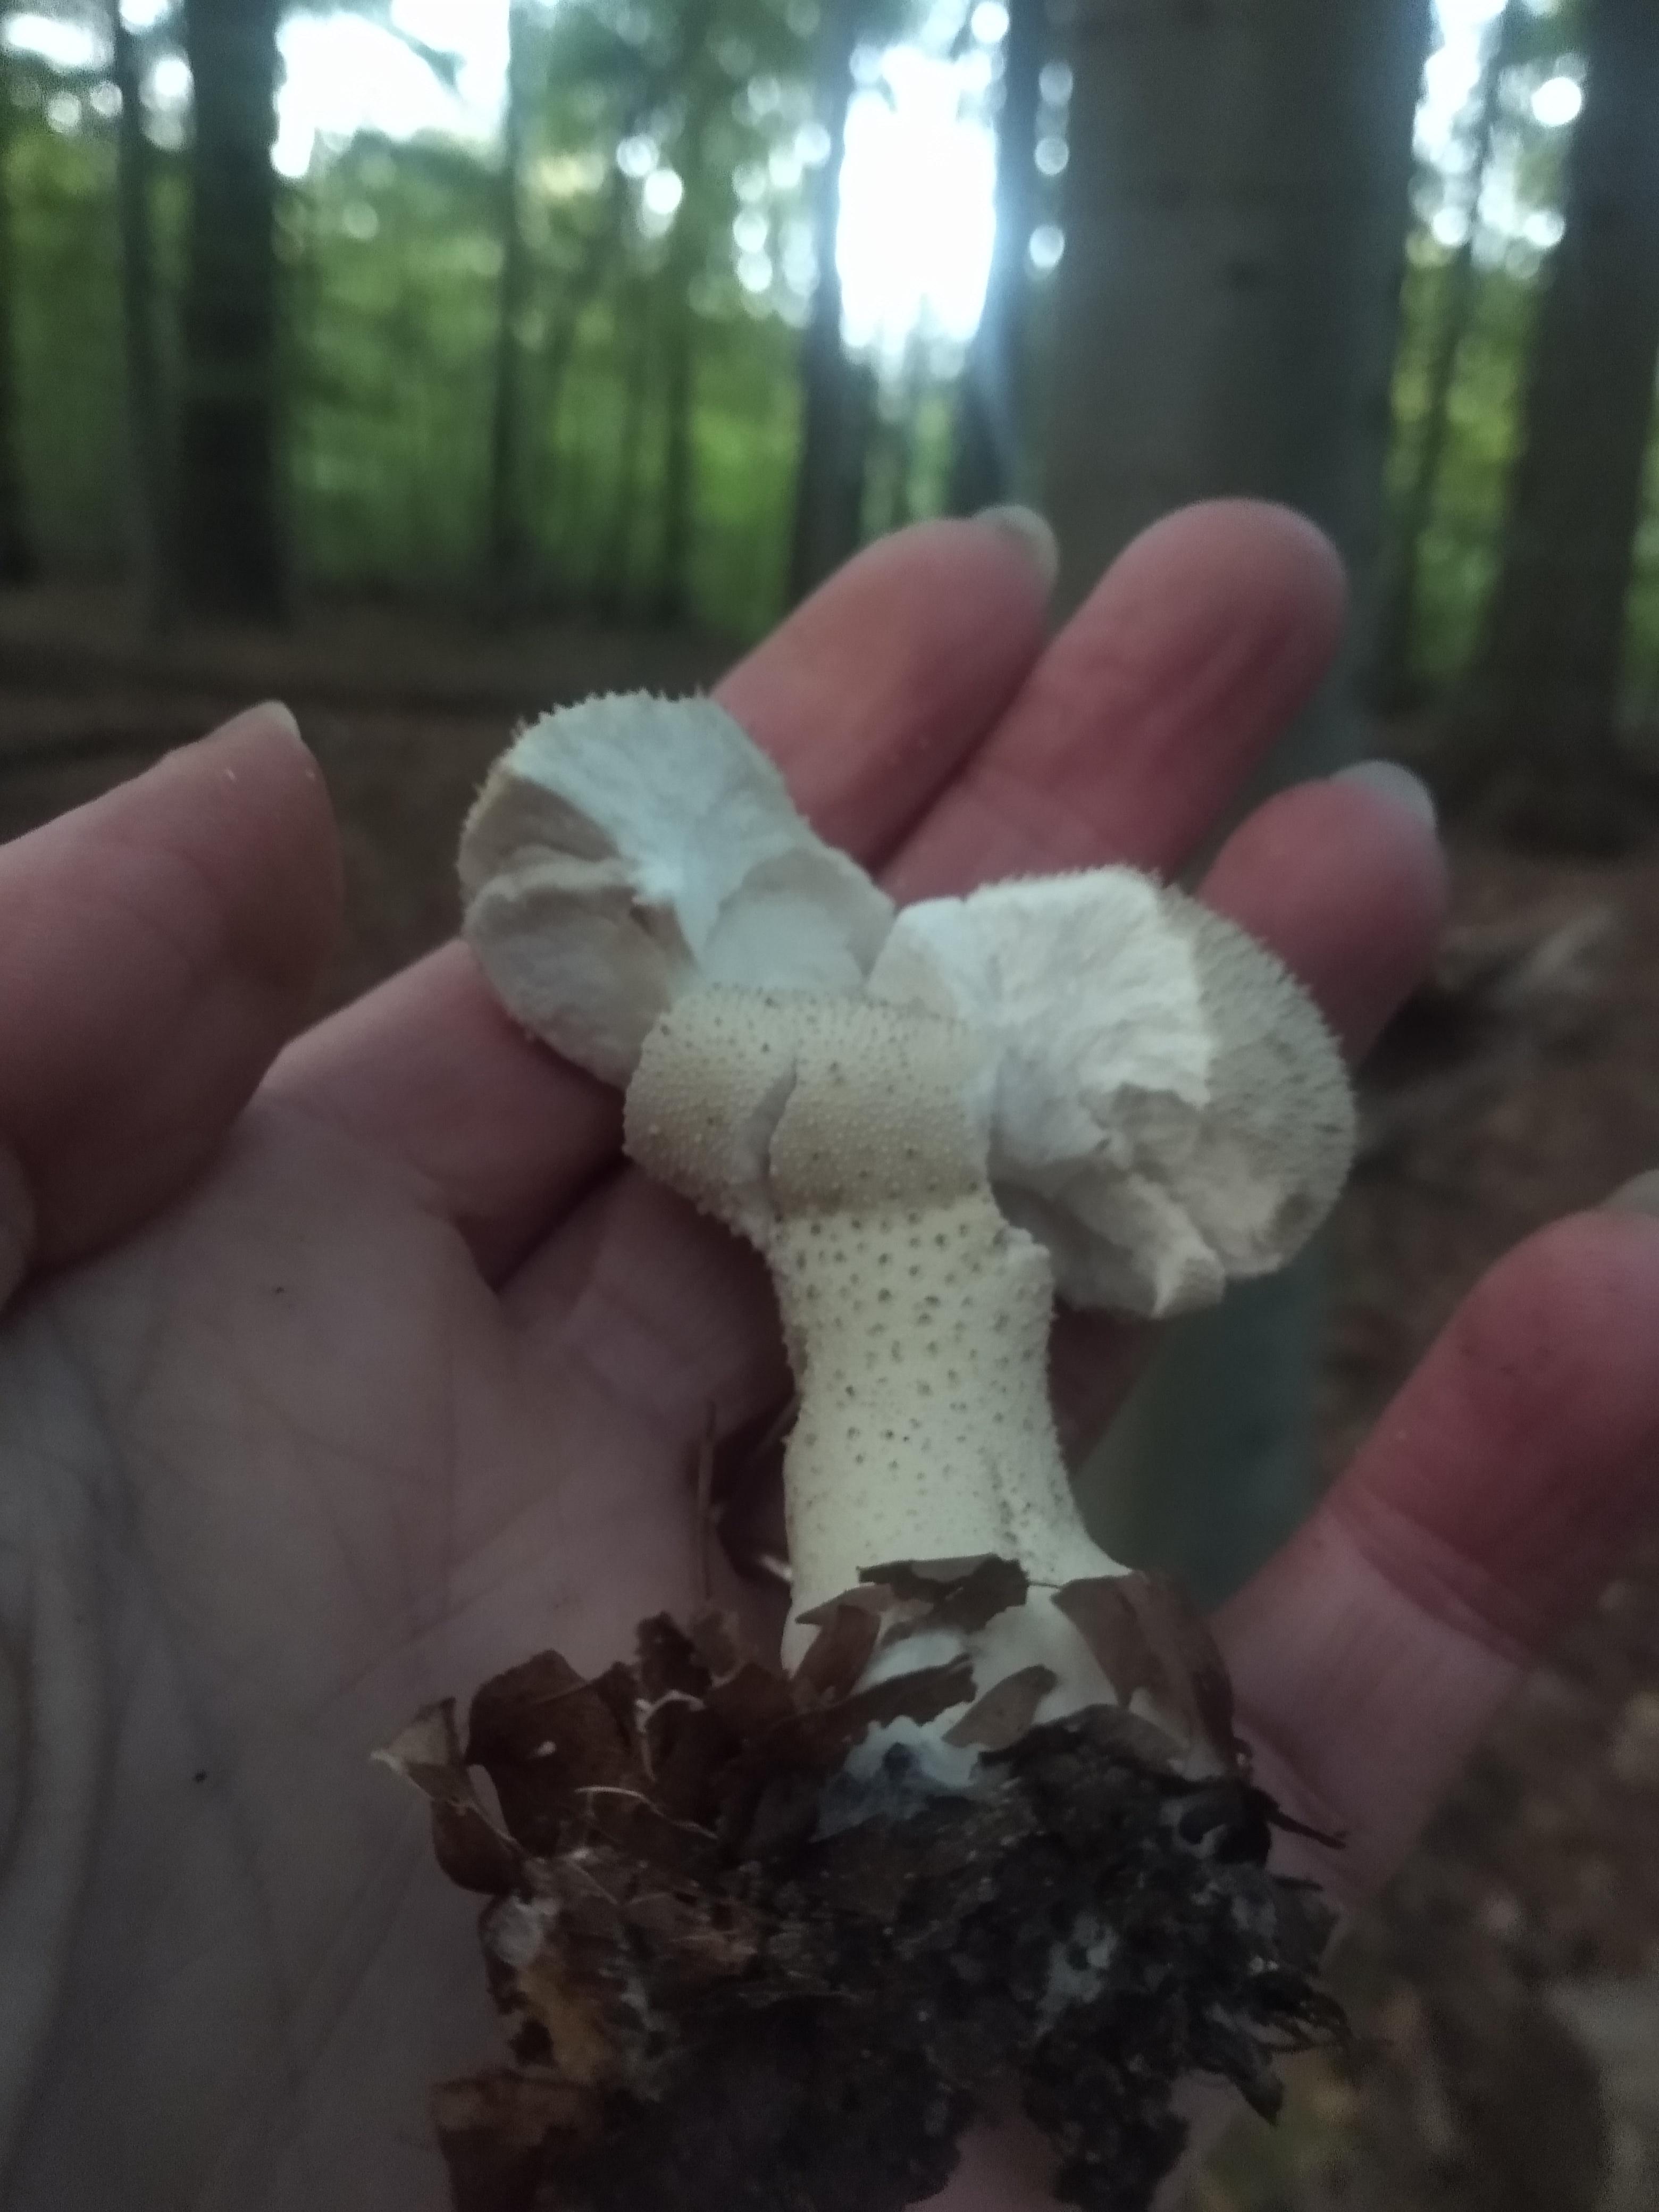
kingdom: Fungi
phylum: Basidiomycota
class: Agaricomycetes
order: Agaricales
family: Lycoperdaceae
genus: Lycoperdon
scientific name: Lycoperdon perlatum
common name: krystal-støvbold
